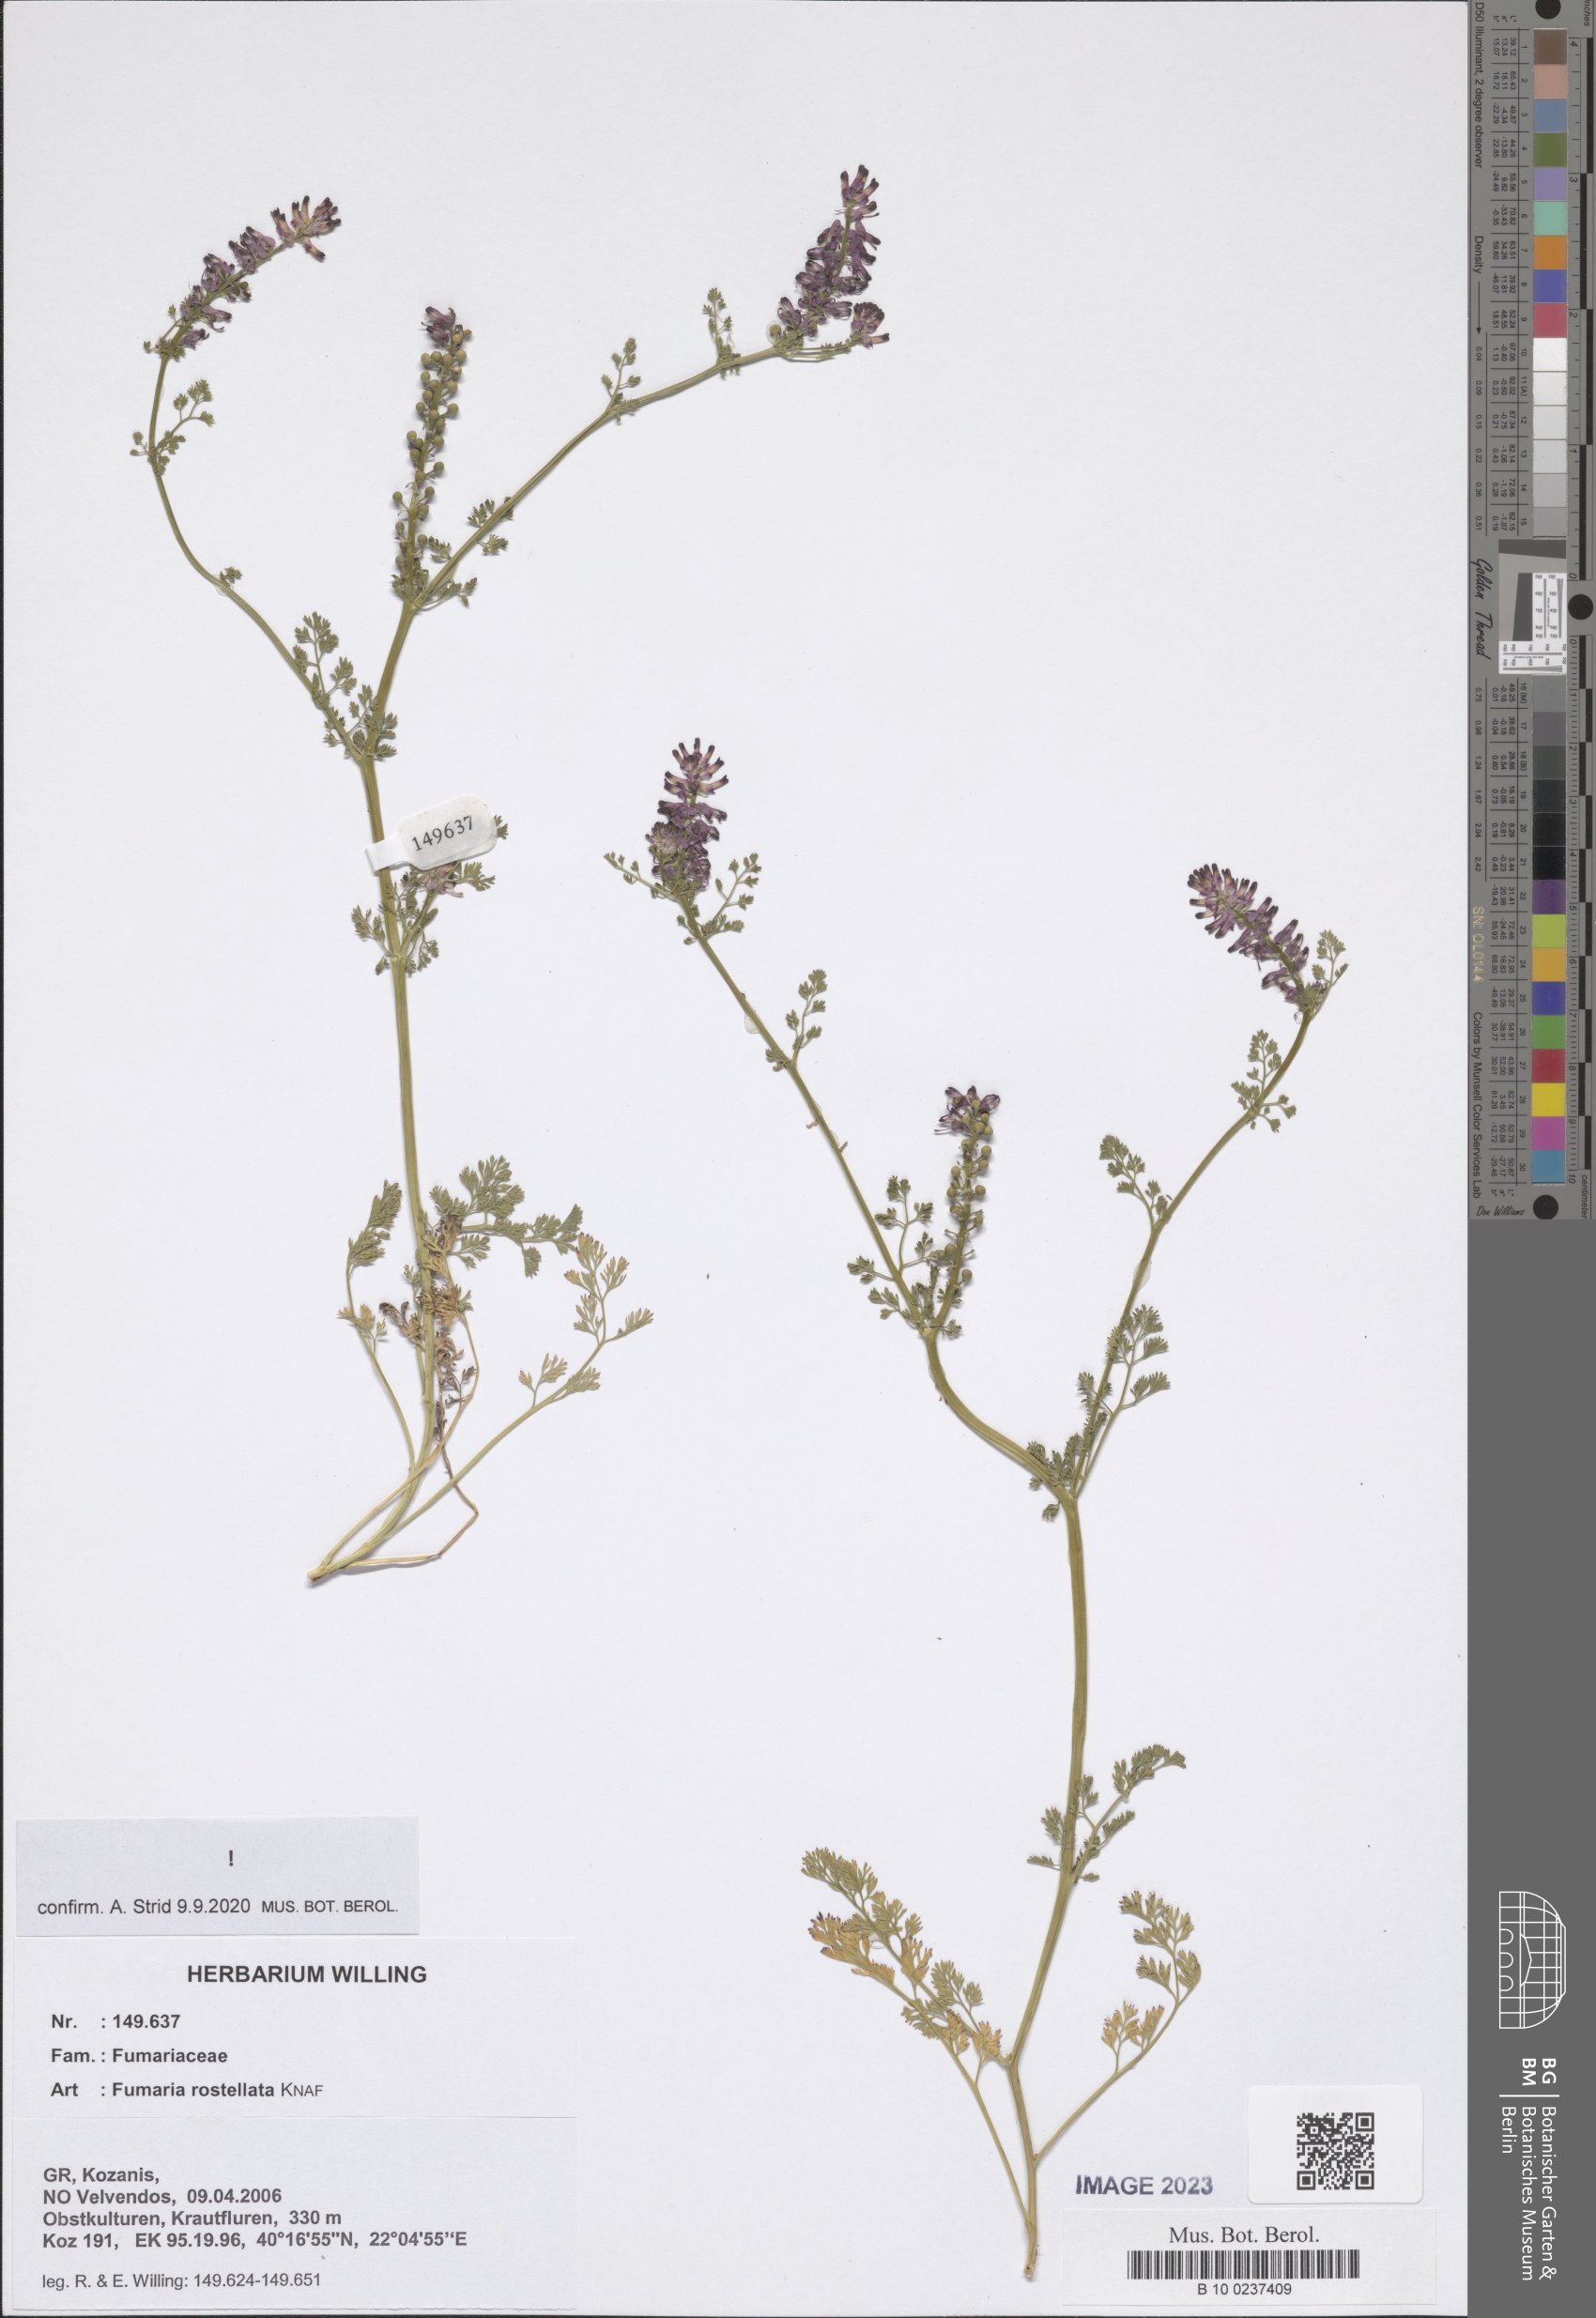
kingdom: Plantae
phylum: Tracheophyta
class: Magnoliopsida
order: Ranunculales
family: Papaveraceae
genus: Fumaria
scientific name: Fumaria rostellata
